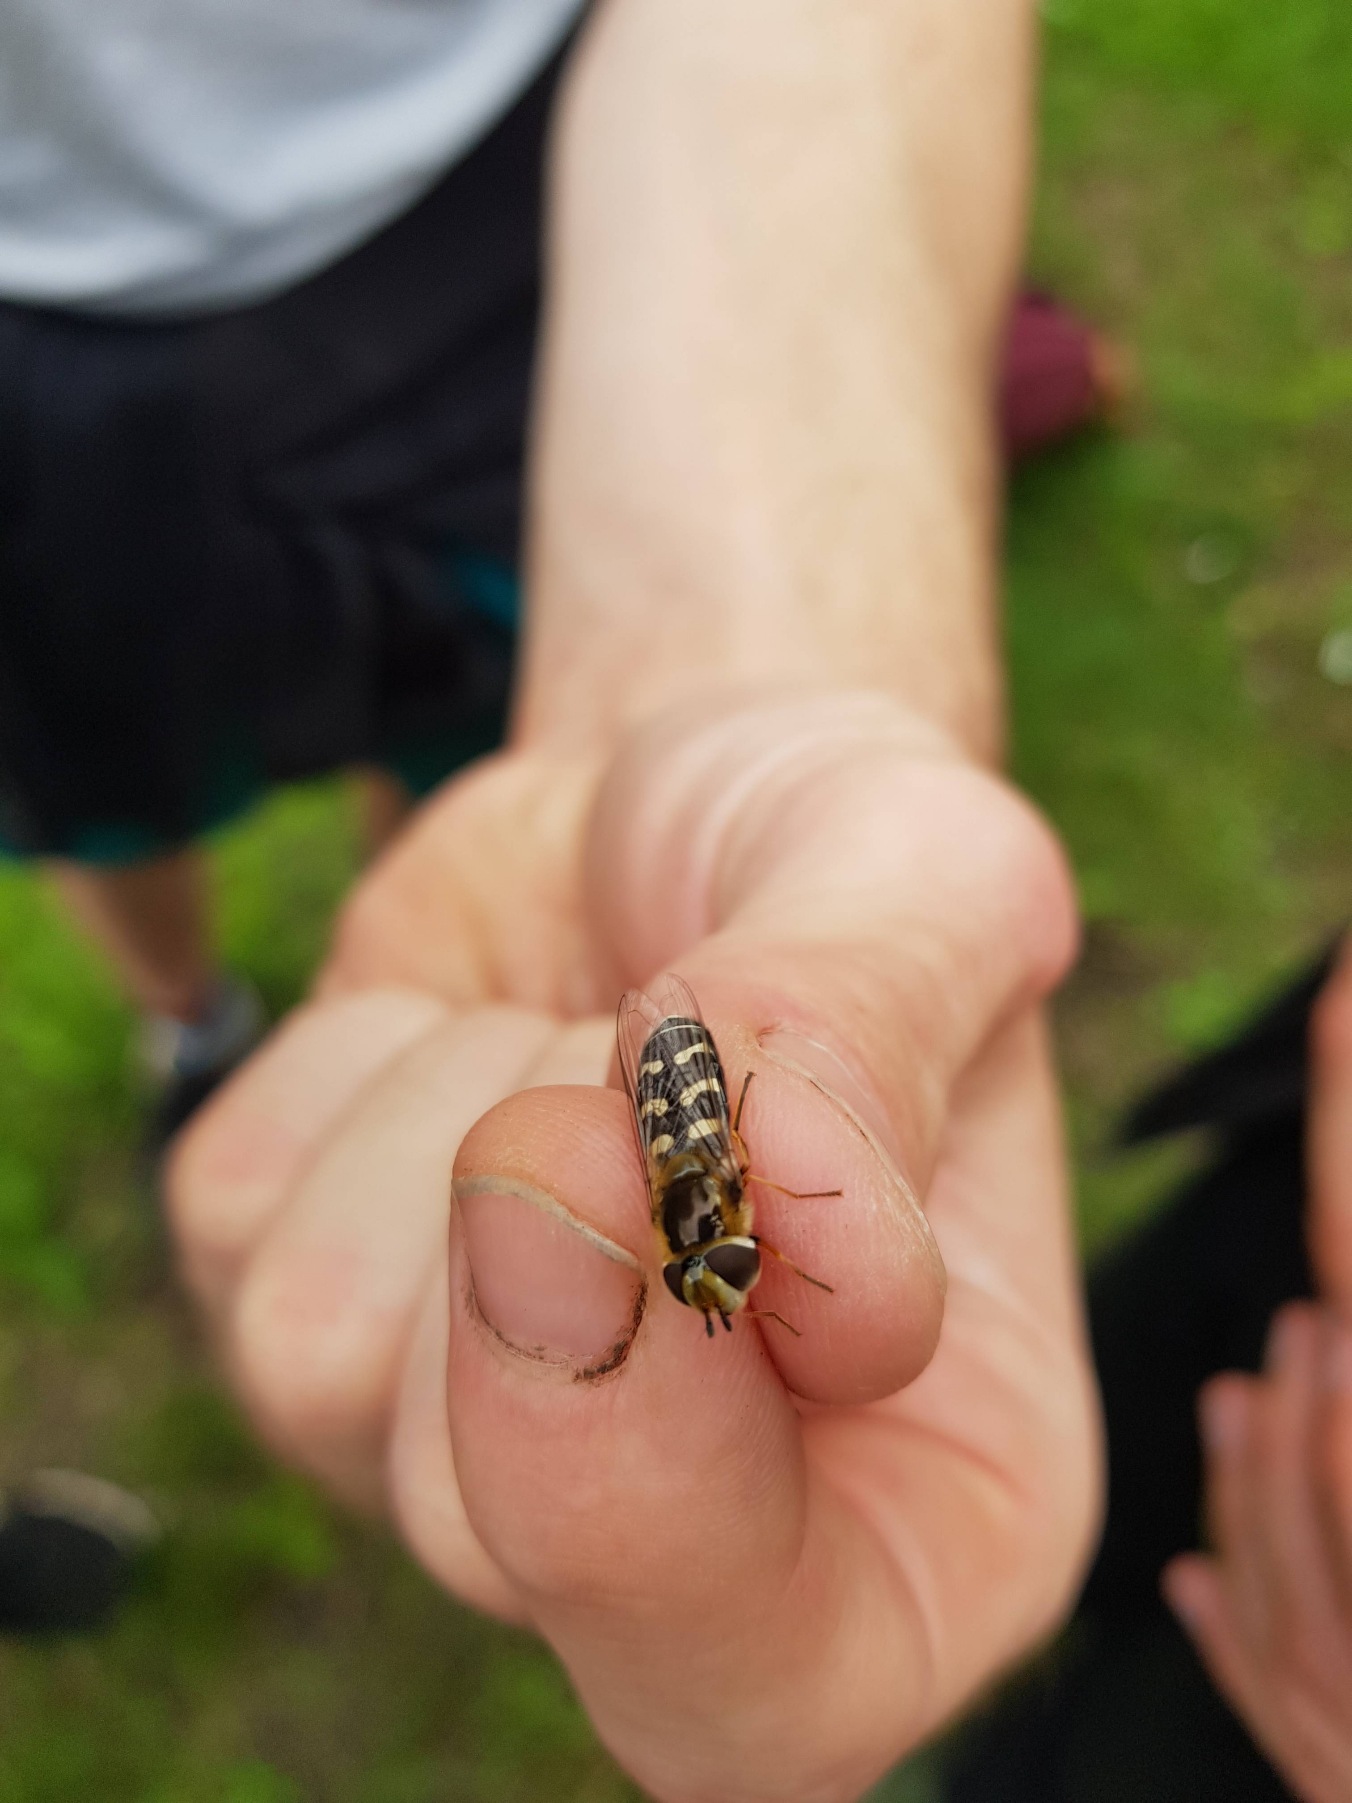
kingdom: Animalia
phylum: Arthropoda
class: Insecta
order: Diptera
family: Syrphidae
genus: Scaeva
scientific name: Scaeva pyrastri
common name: Hvidplettet agersvirreflue
